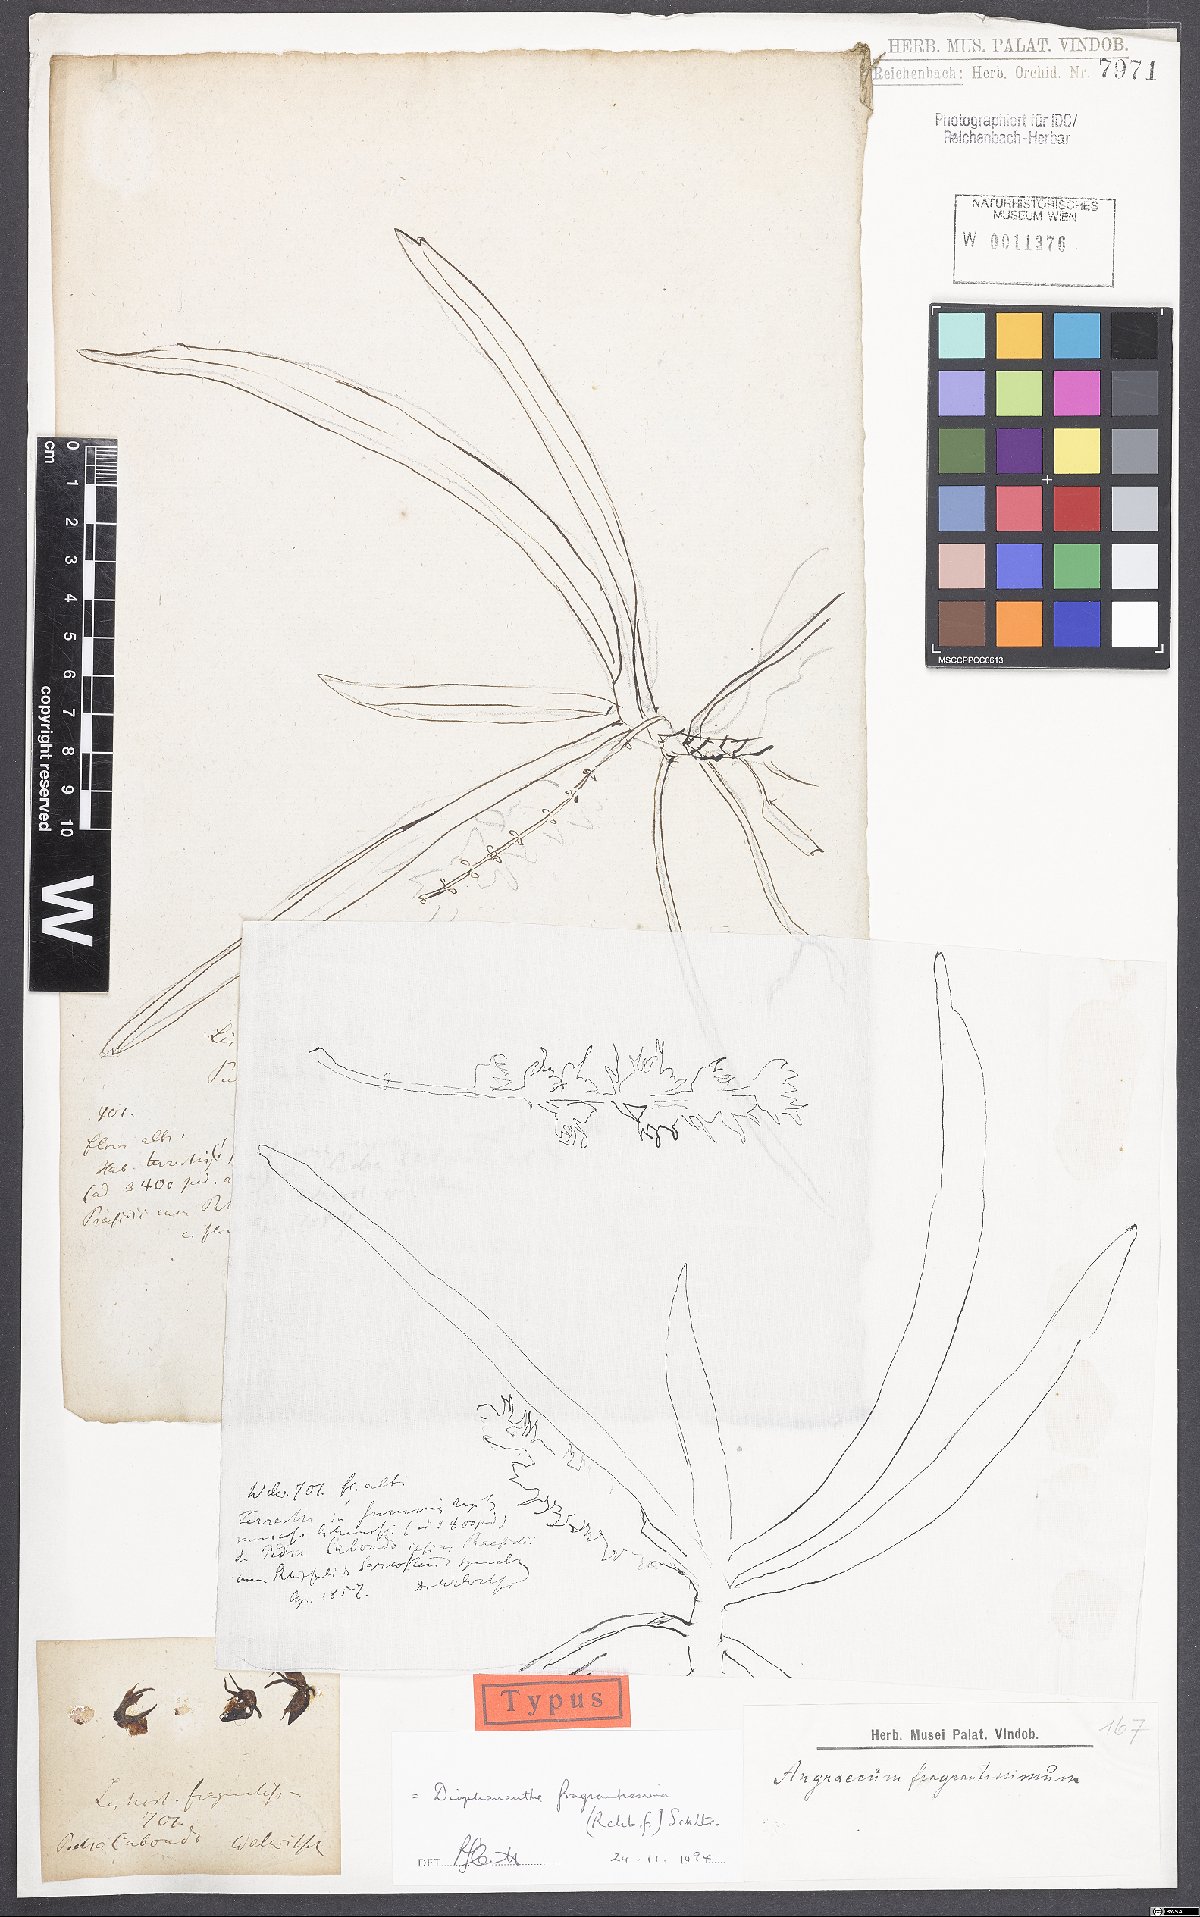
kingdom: Plantae
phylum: Tracheophyta
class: Liliopsida
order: Asparagales
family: Orchidaceae
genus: Diaphananthe
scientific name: Diaphananthe fragrantissima
